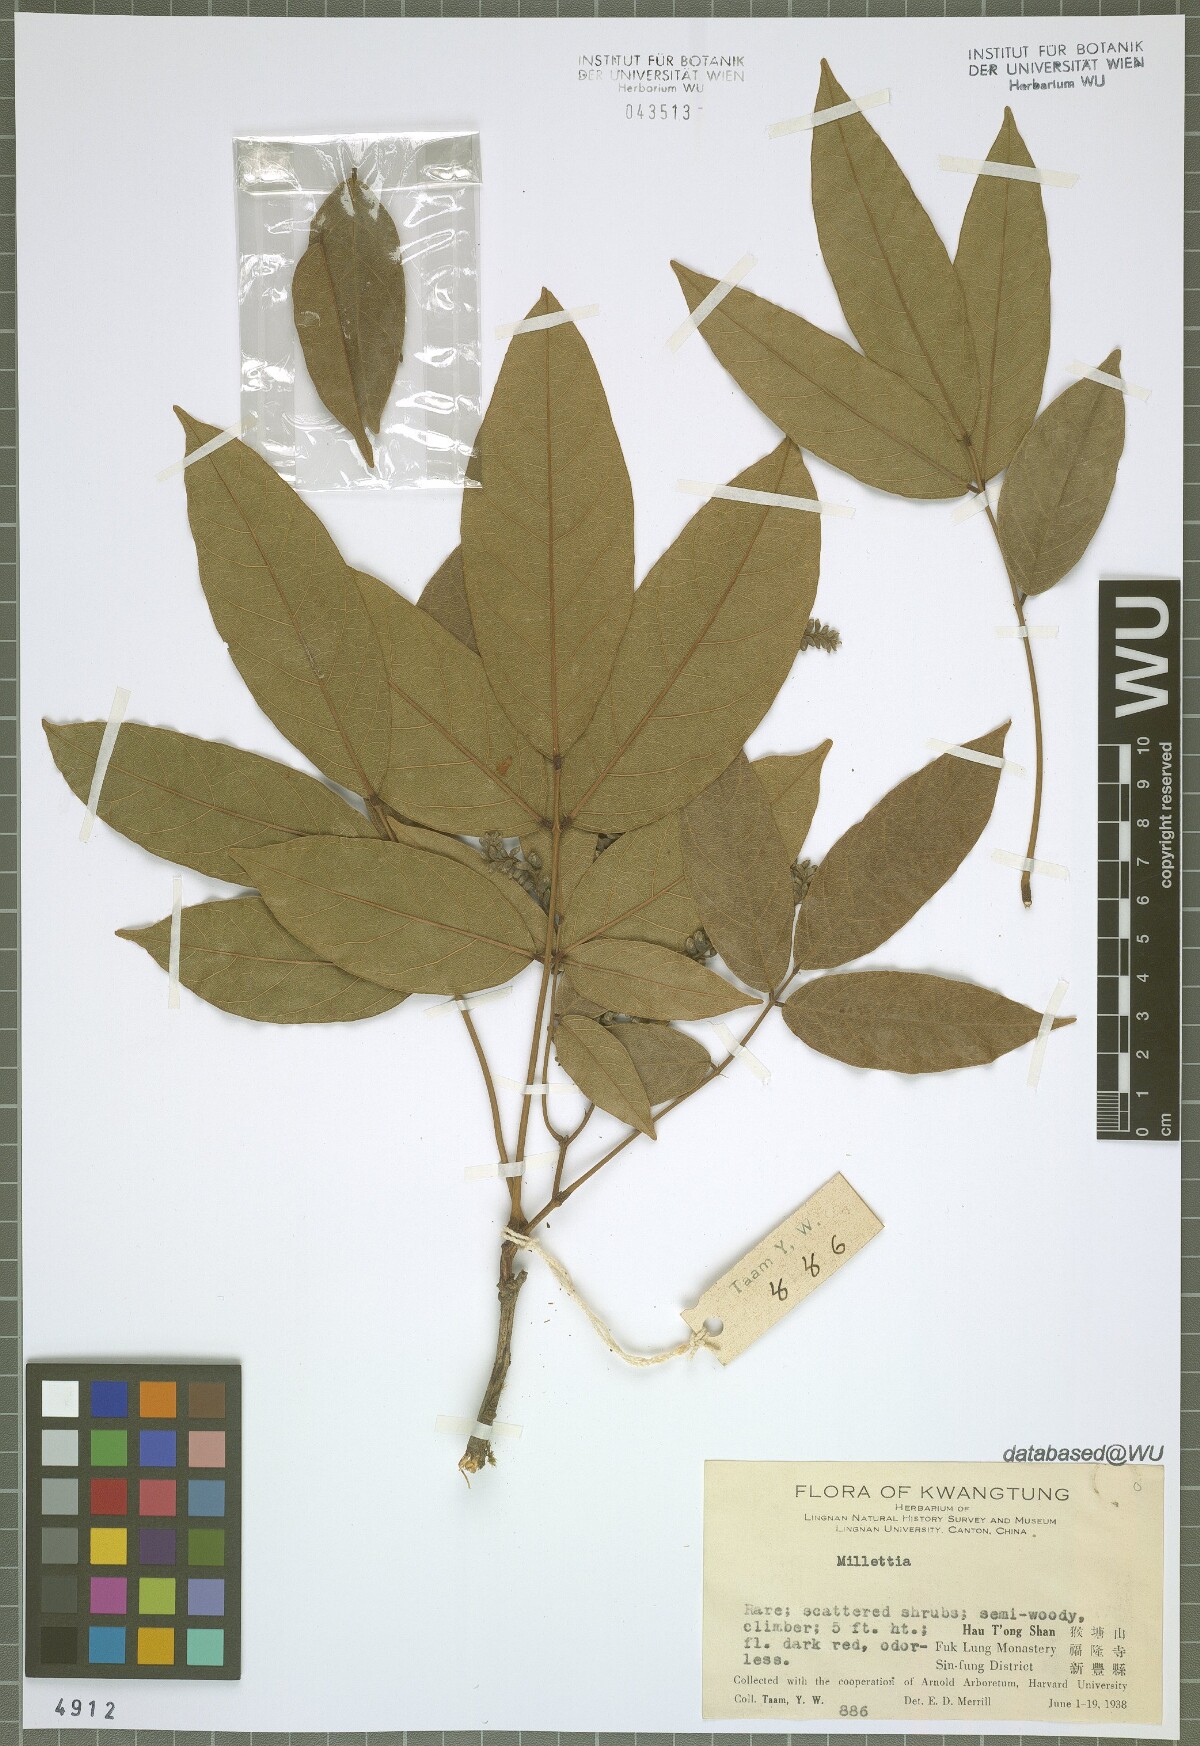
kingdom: Plantae
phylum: Tracheophyta
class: Magnoliopsida
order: Fabales
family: Fabaceae
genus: Millettia
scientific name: Millettia
